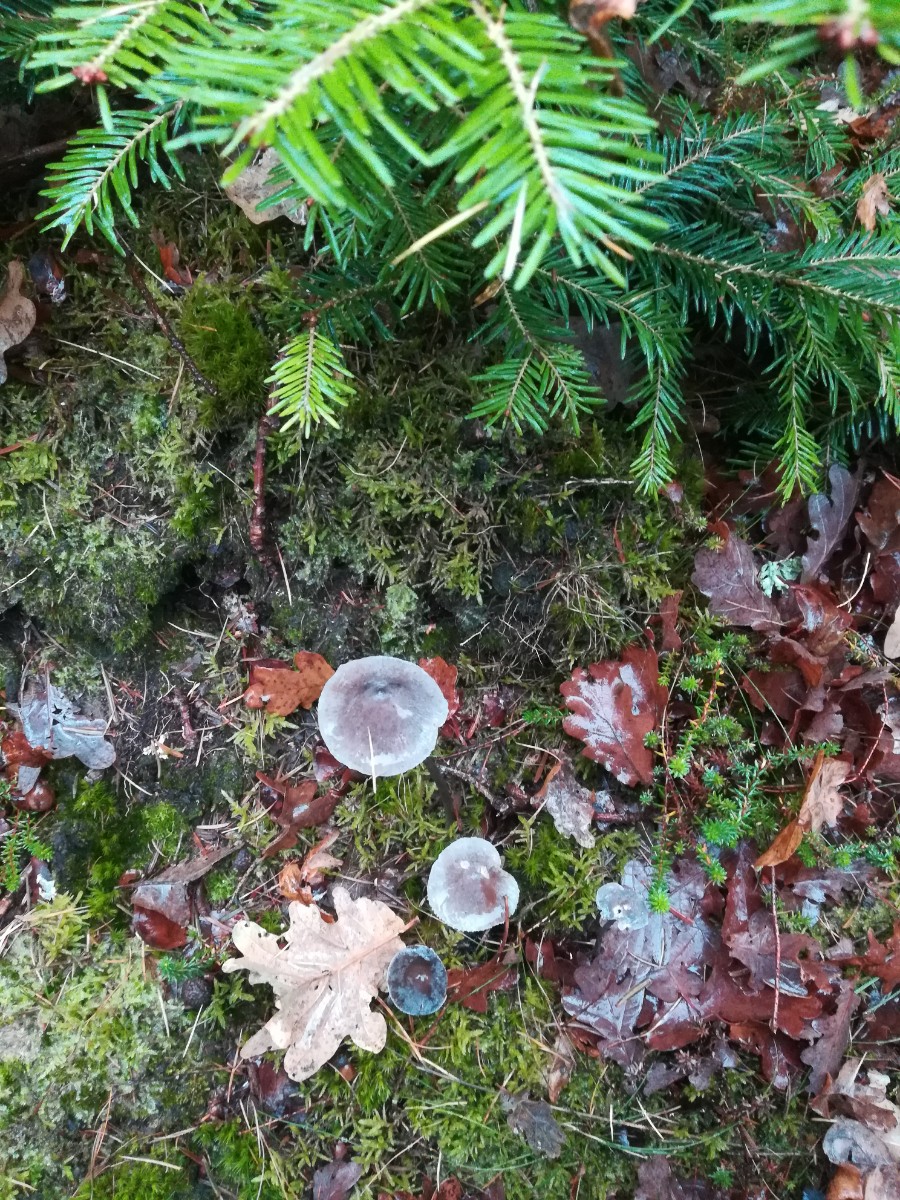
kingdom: Fungi
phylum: Basidiomycota
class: Agaricomycetes
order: Agaricales
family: Mycenaceae
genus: Mycena
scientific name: Mycena
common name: huesvamp
